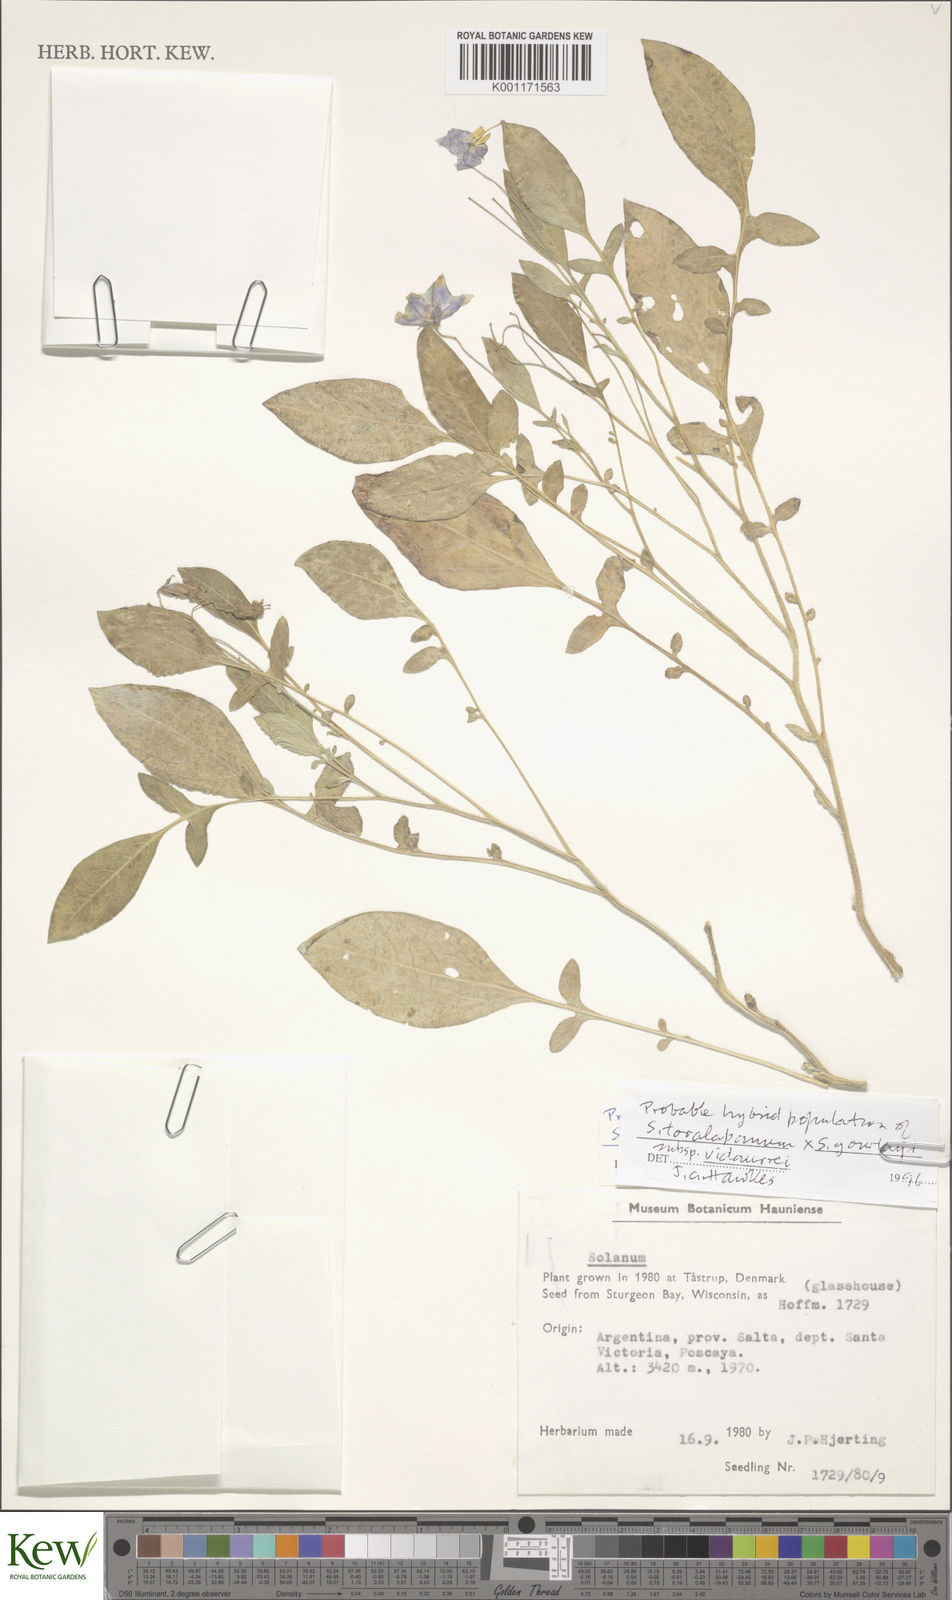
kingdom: Plantae
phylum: Tracheophyta
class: Magnoliopsida
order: Solanales
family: Solanaceae
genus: Solanum
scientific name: Solanum brevicaule
